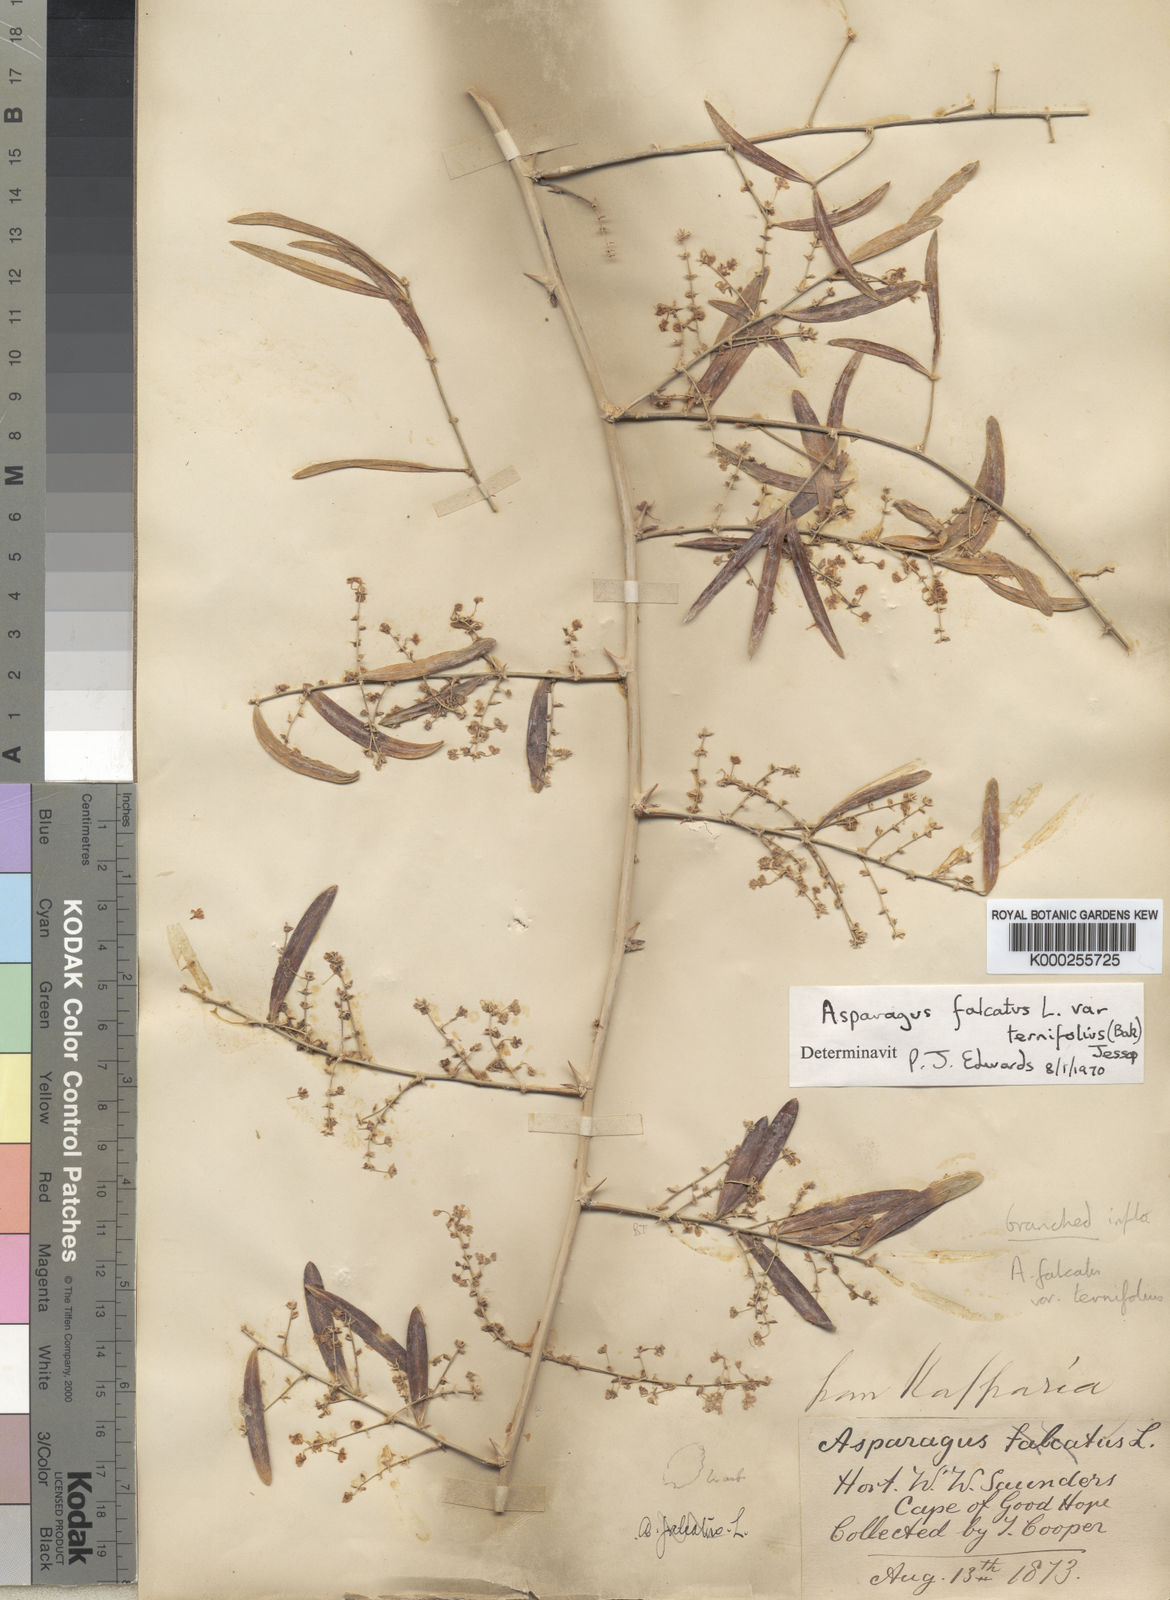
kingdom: Plantae
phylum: Tracheophyta
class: Liliopsida
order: Asparagales
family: Asparagaceae
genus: Asparagus
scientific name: Asparagus falcatus
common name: Asparagus
